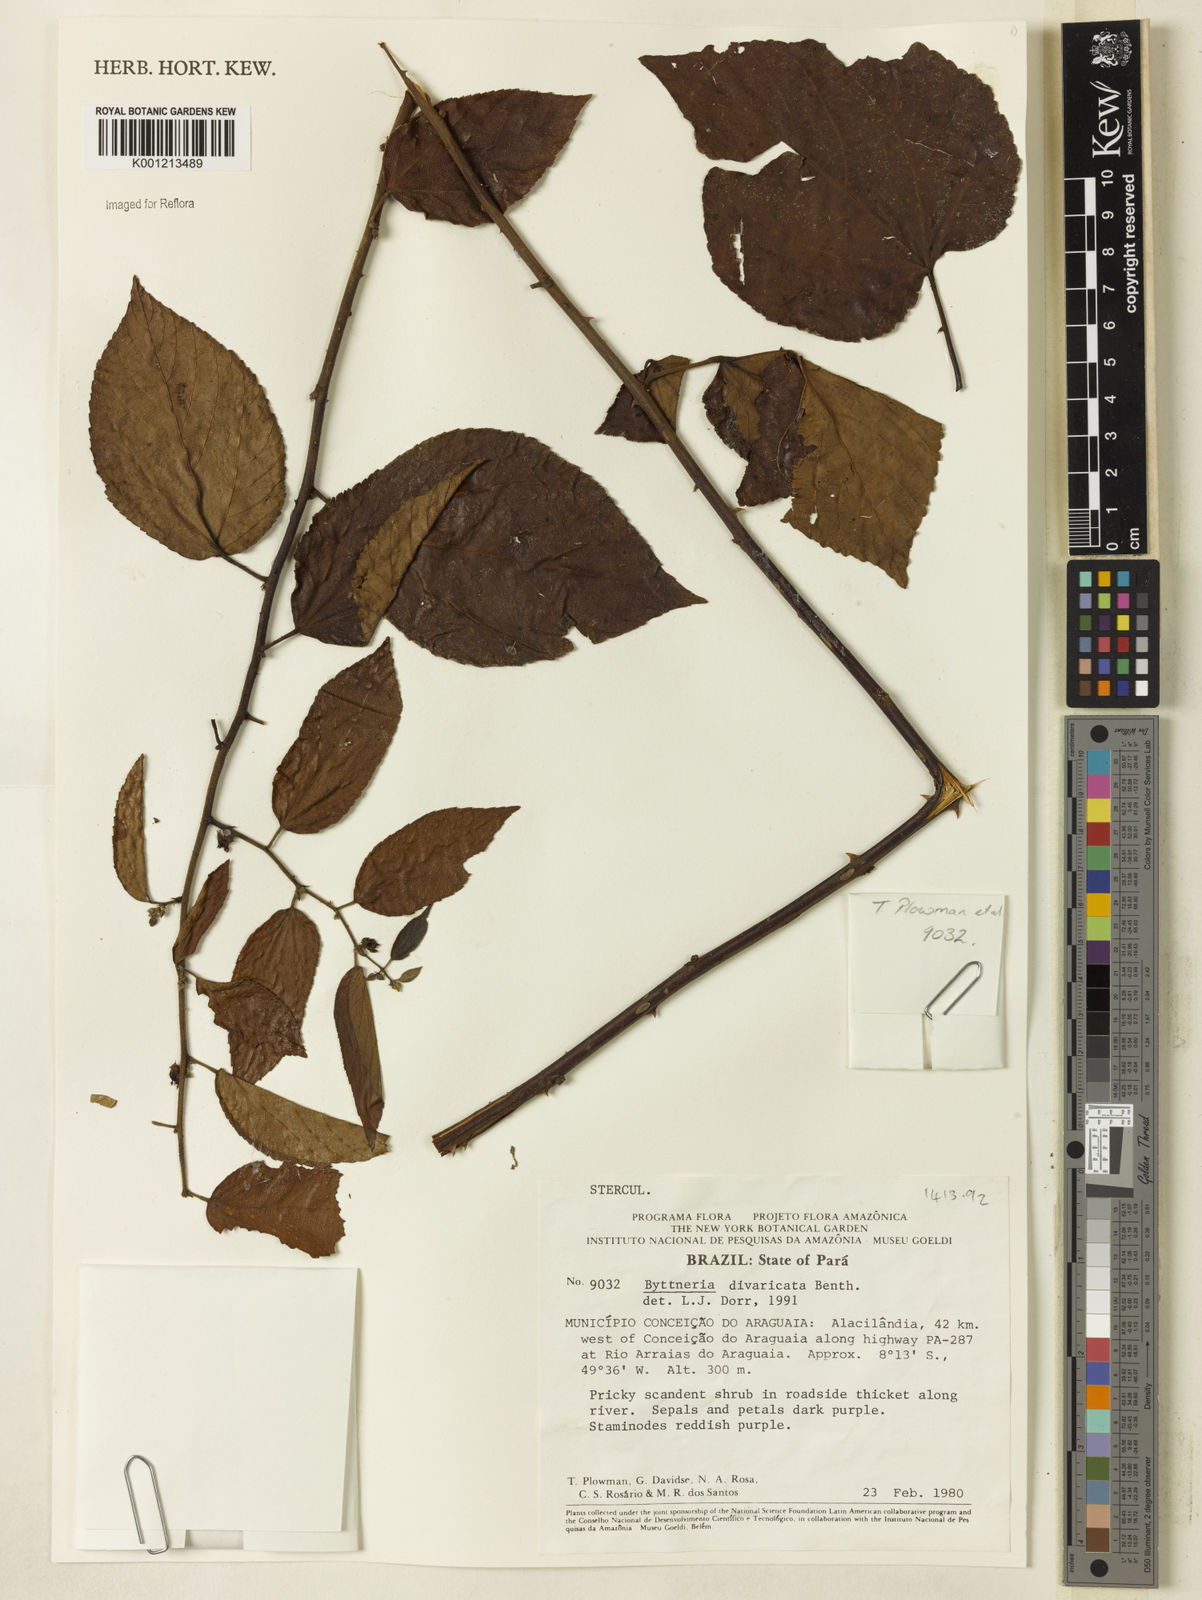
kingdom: Plantae
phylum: Tracheophyta
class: Magnoliopsida
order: Malvales
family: Malvaceae
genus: Byttneria
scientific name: Byttneria divaricata
